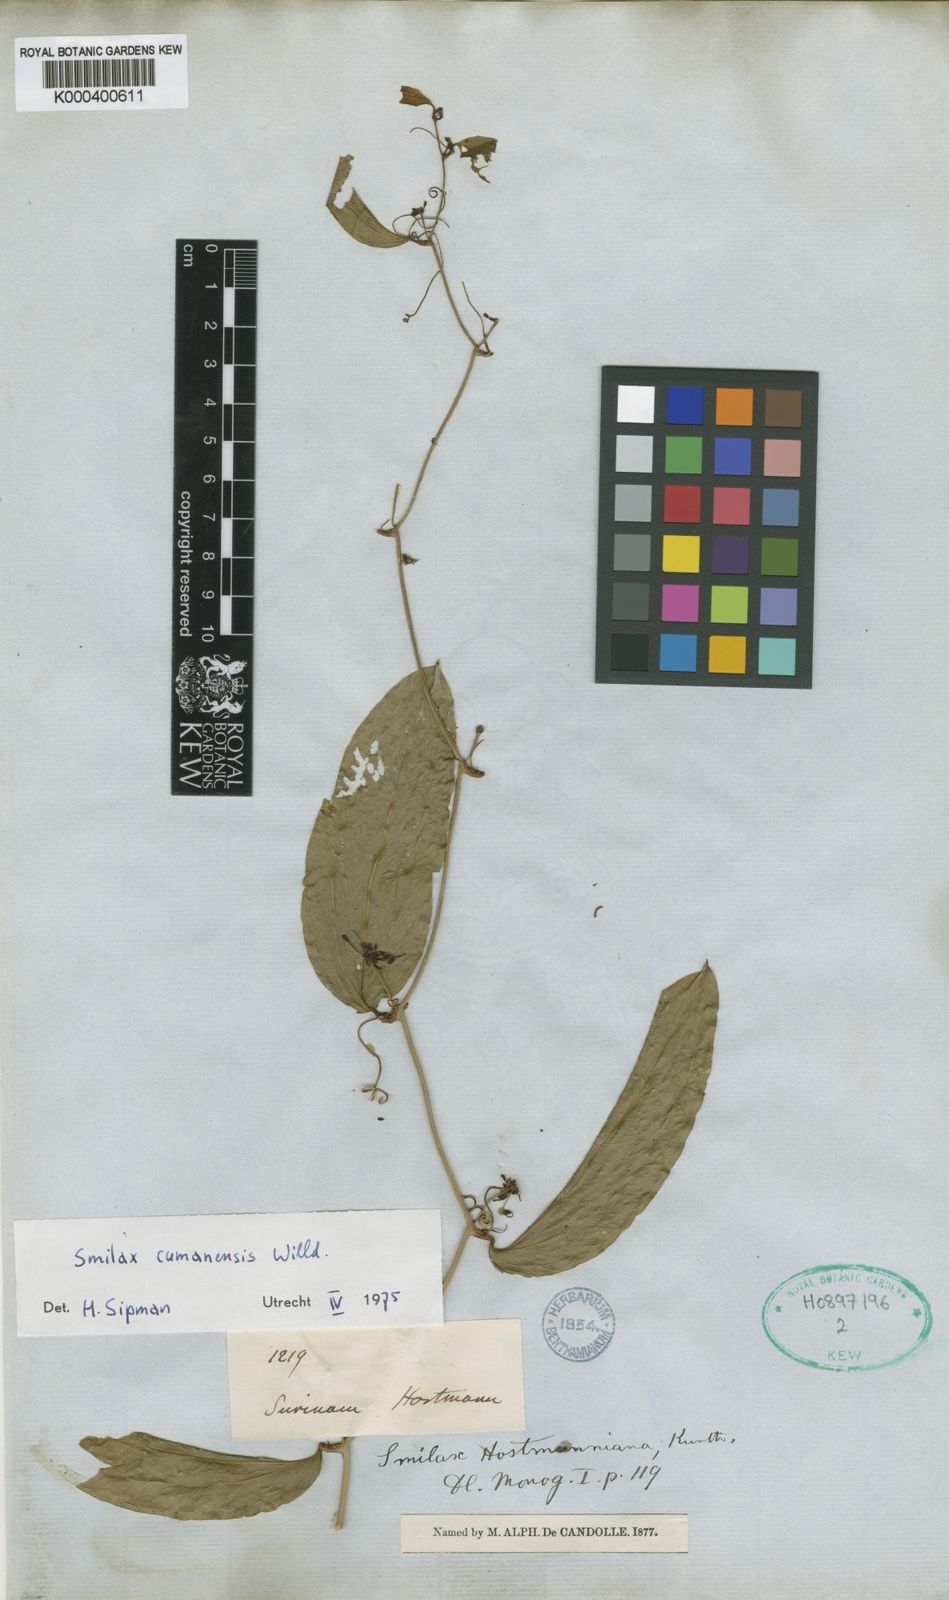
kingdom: Plantae
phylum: Tracheophyta
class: Liliopsida
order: Liliales
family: Smilacaceae
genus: Smilax
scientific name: Smilax oblongata
